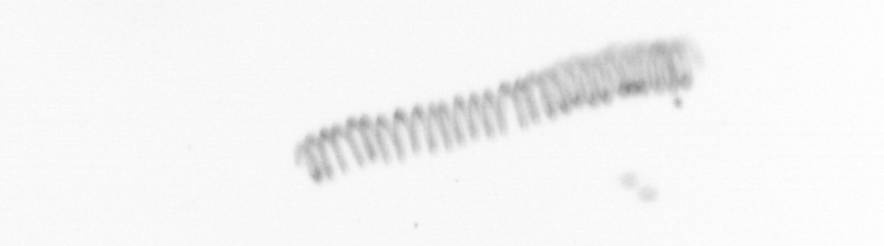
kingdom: Chromista
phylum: Ochrophyta
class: Bacillariophyceae
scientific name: Bacillariophyceae
